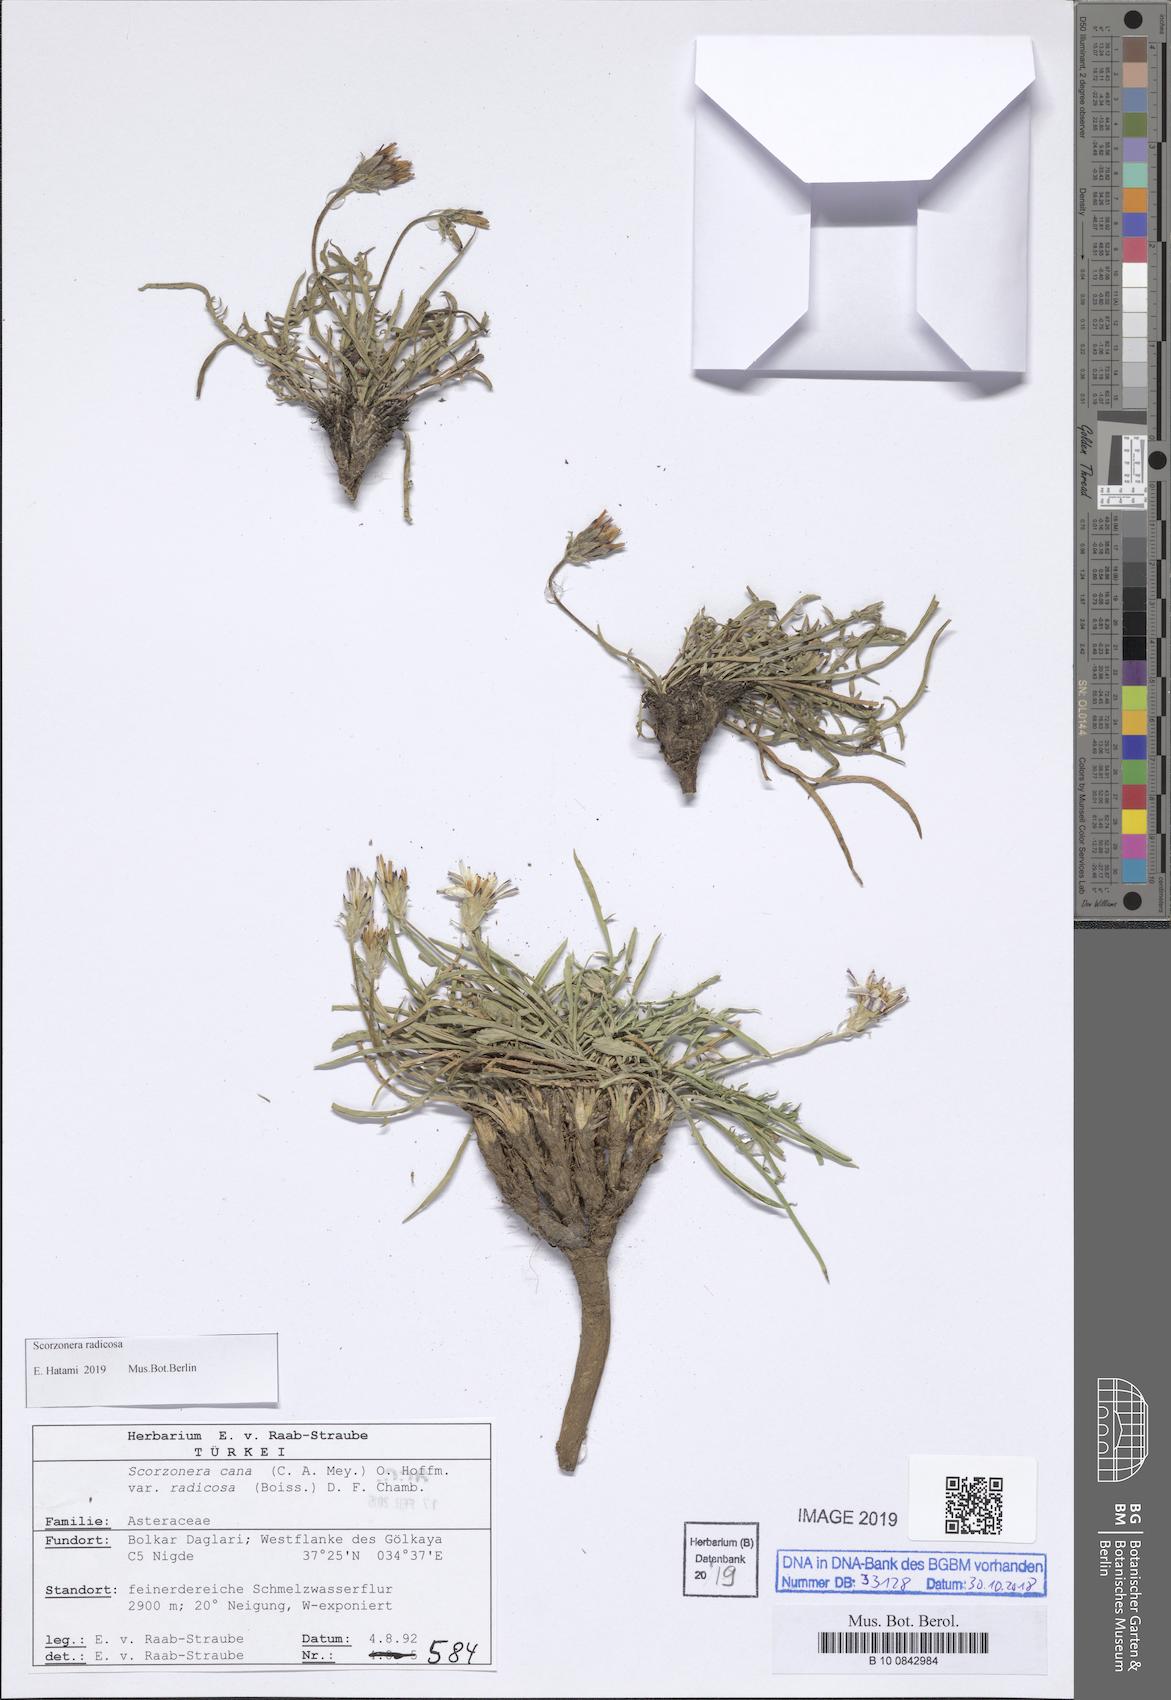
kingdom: Plantae
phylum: Tracheophyta
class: Magnoliopsida
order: Asterales
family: Asteraceae
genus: Scorzonera
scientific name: Scorzonera radicosa
